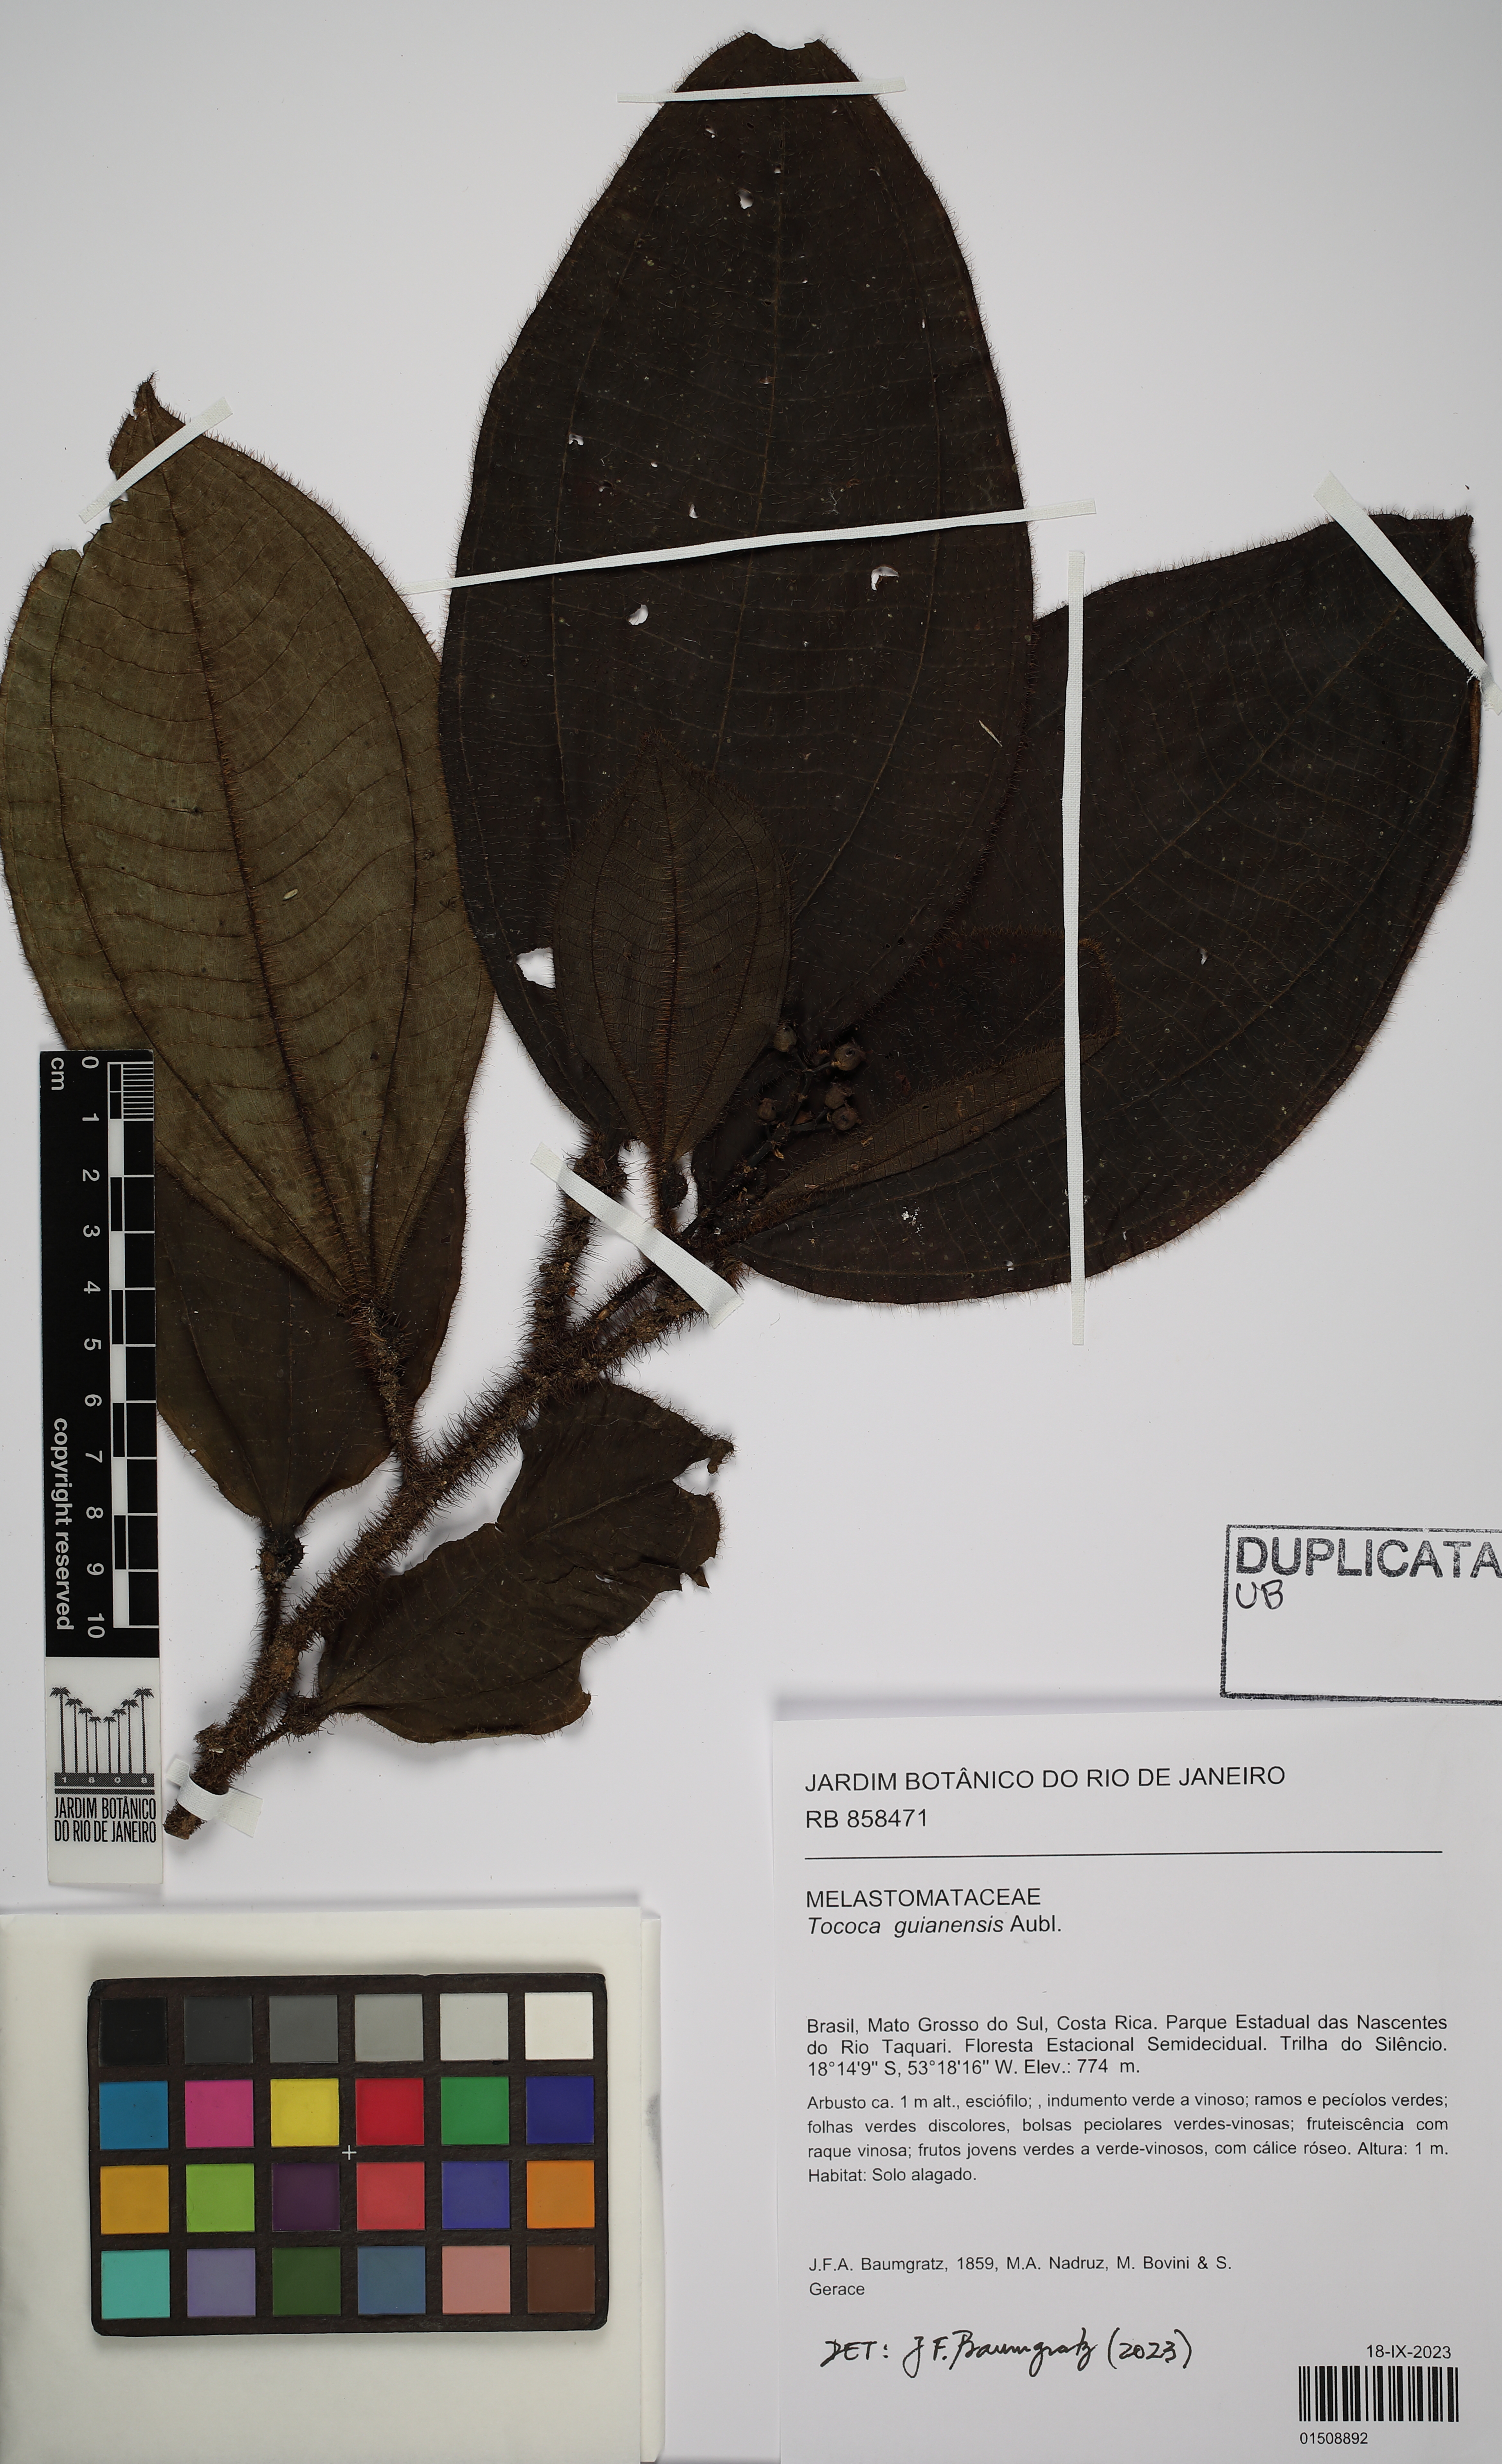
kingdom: Plantae
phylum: Tracheophyta
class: Magnoliopsida
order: Myrtales
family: Melastomataceae
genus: Miconia
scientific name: Miconia tococa
